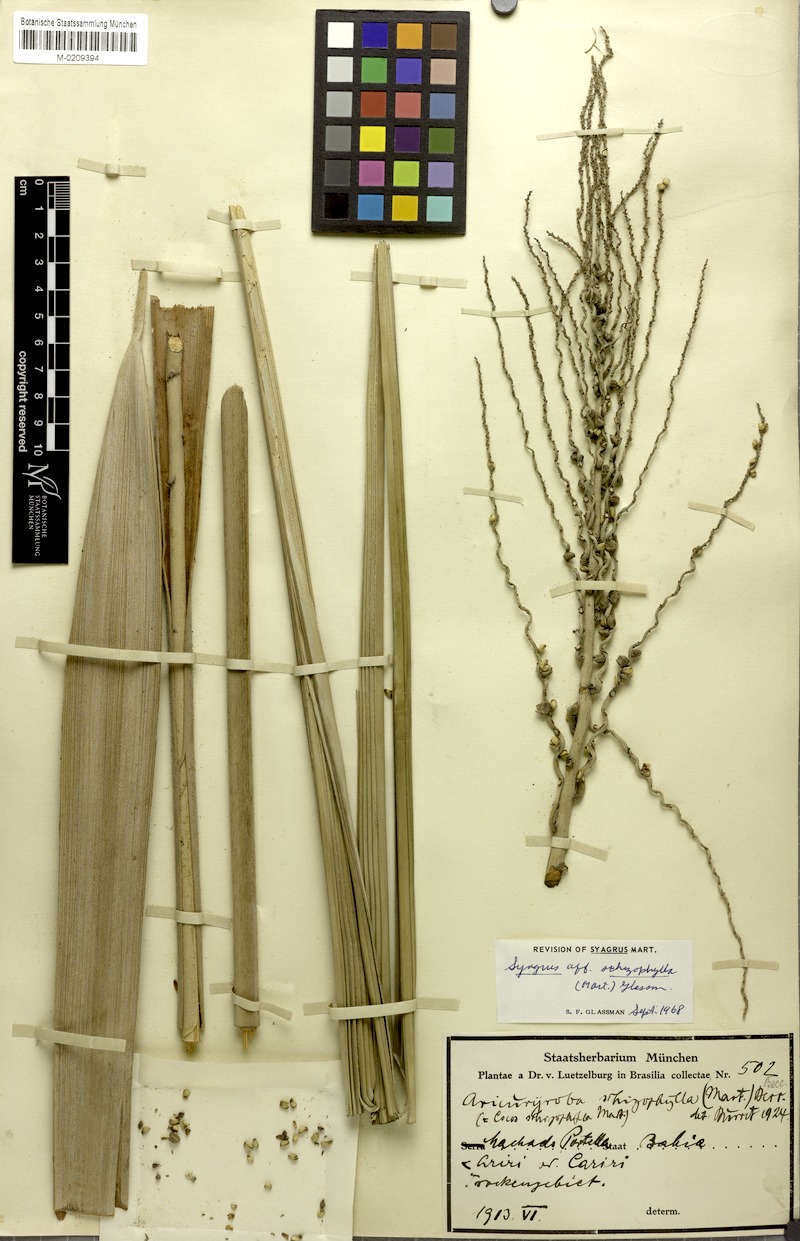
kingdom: Plantae
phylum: Tracheophyta
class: Liliopsida
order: Arecales
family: Arecaceae
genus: Syagrus
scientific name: Syagrus schizophylla
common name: Arikury palm
